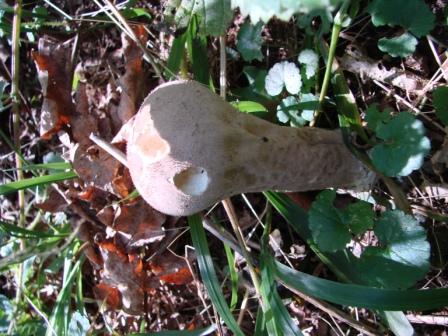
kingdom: Fungi
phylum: Basidiomycota
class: Agaricomycetes
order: Agaricales
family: Lycoperdaceae
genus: Lycoperdon
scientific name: Lycoperdon excipuliforme
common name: højstokket støvbold
